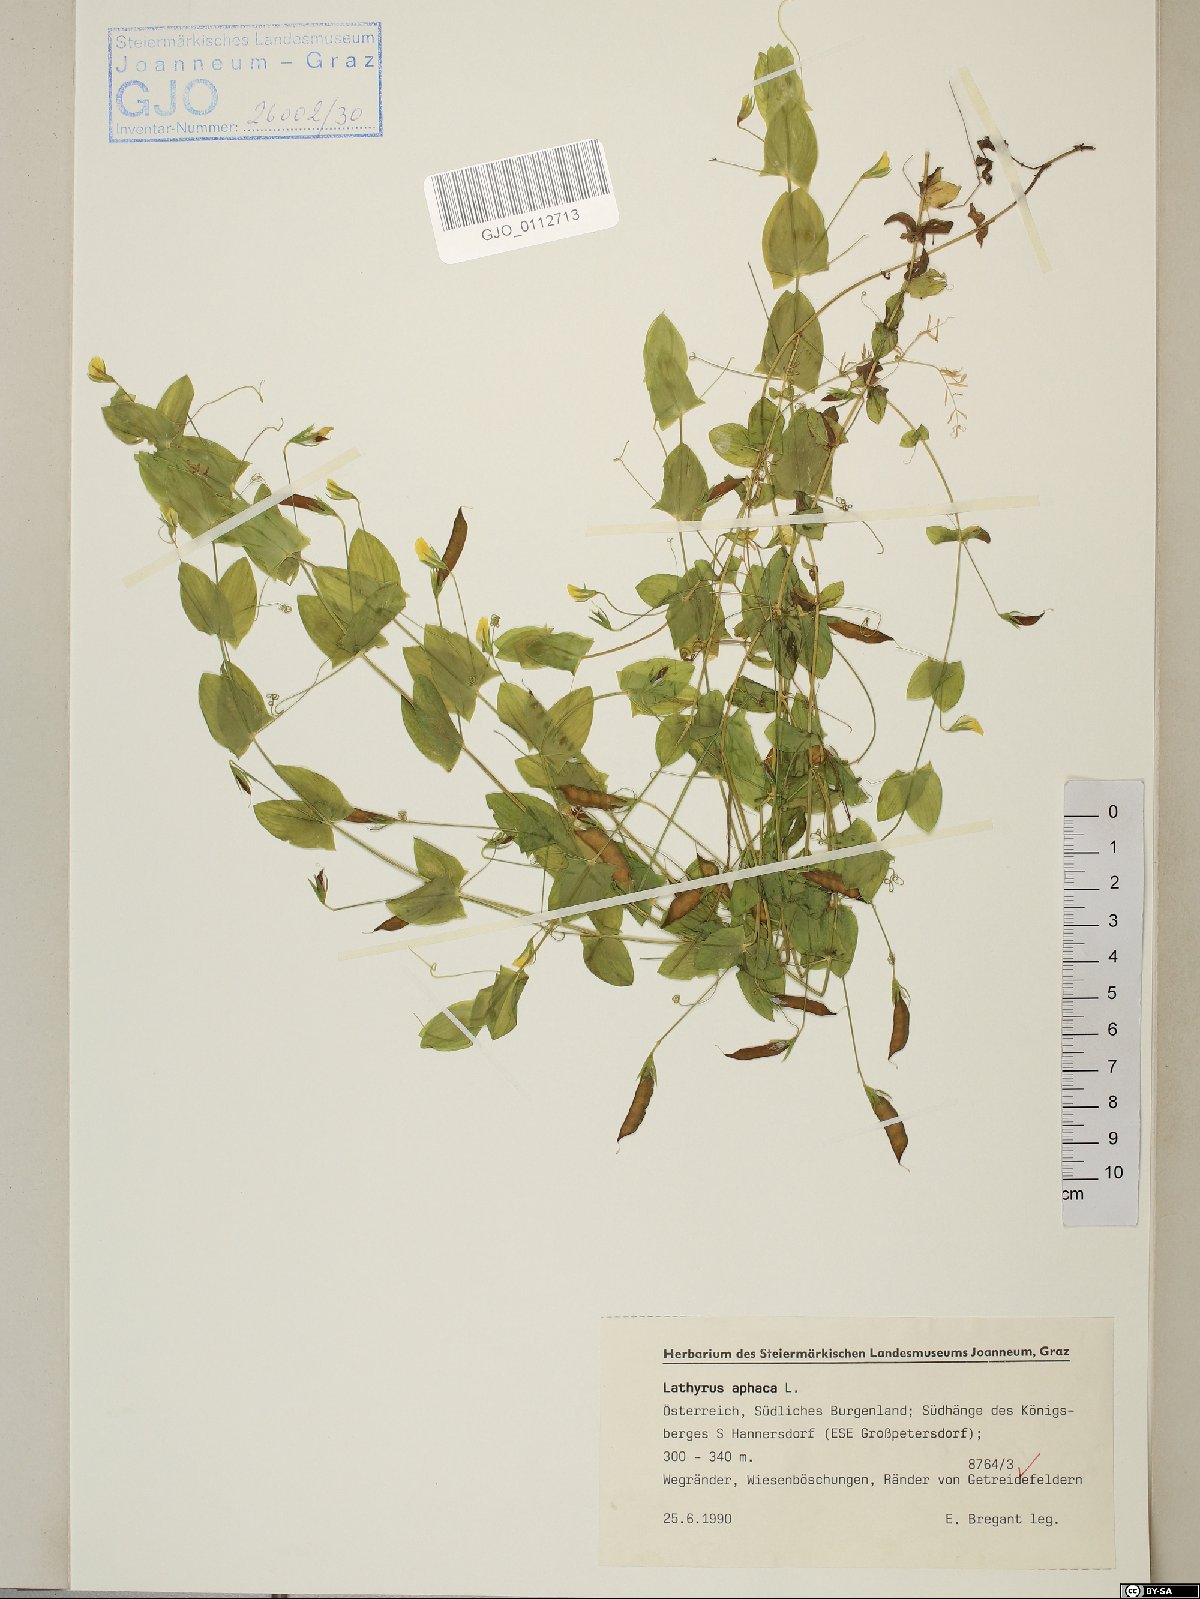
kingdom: Plantae
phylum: Tracheophyta
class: Magnoliopsida
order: Fabales
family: Fabaceae
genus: Lathyrus
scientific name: Lathyrus aphaca
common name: Yellow vetchling
